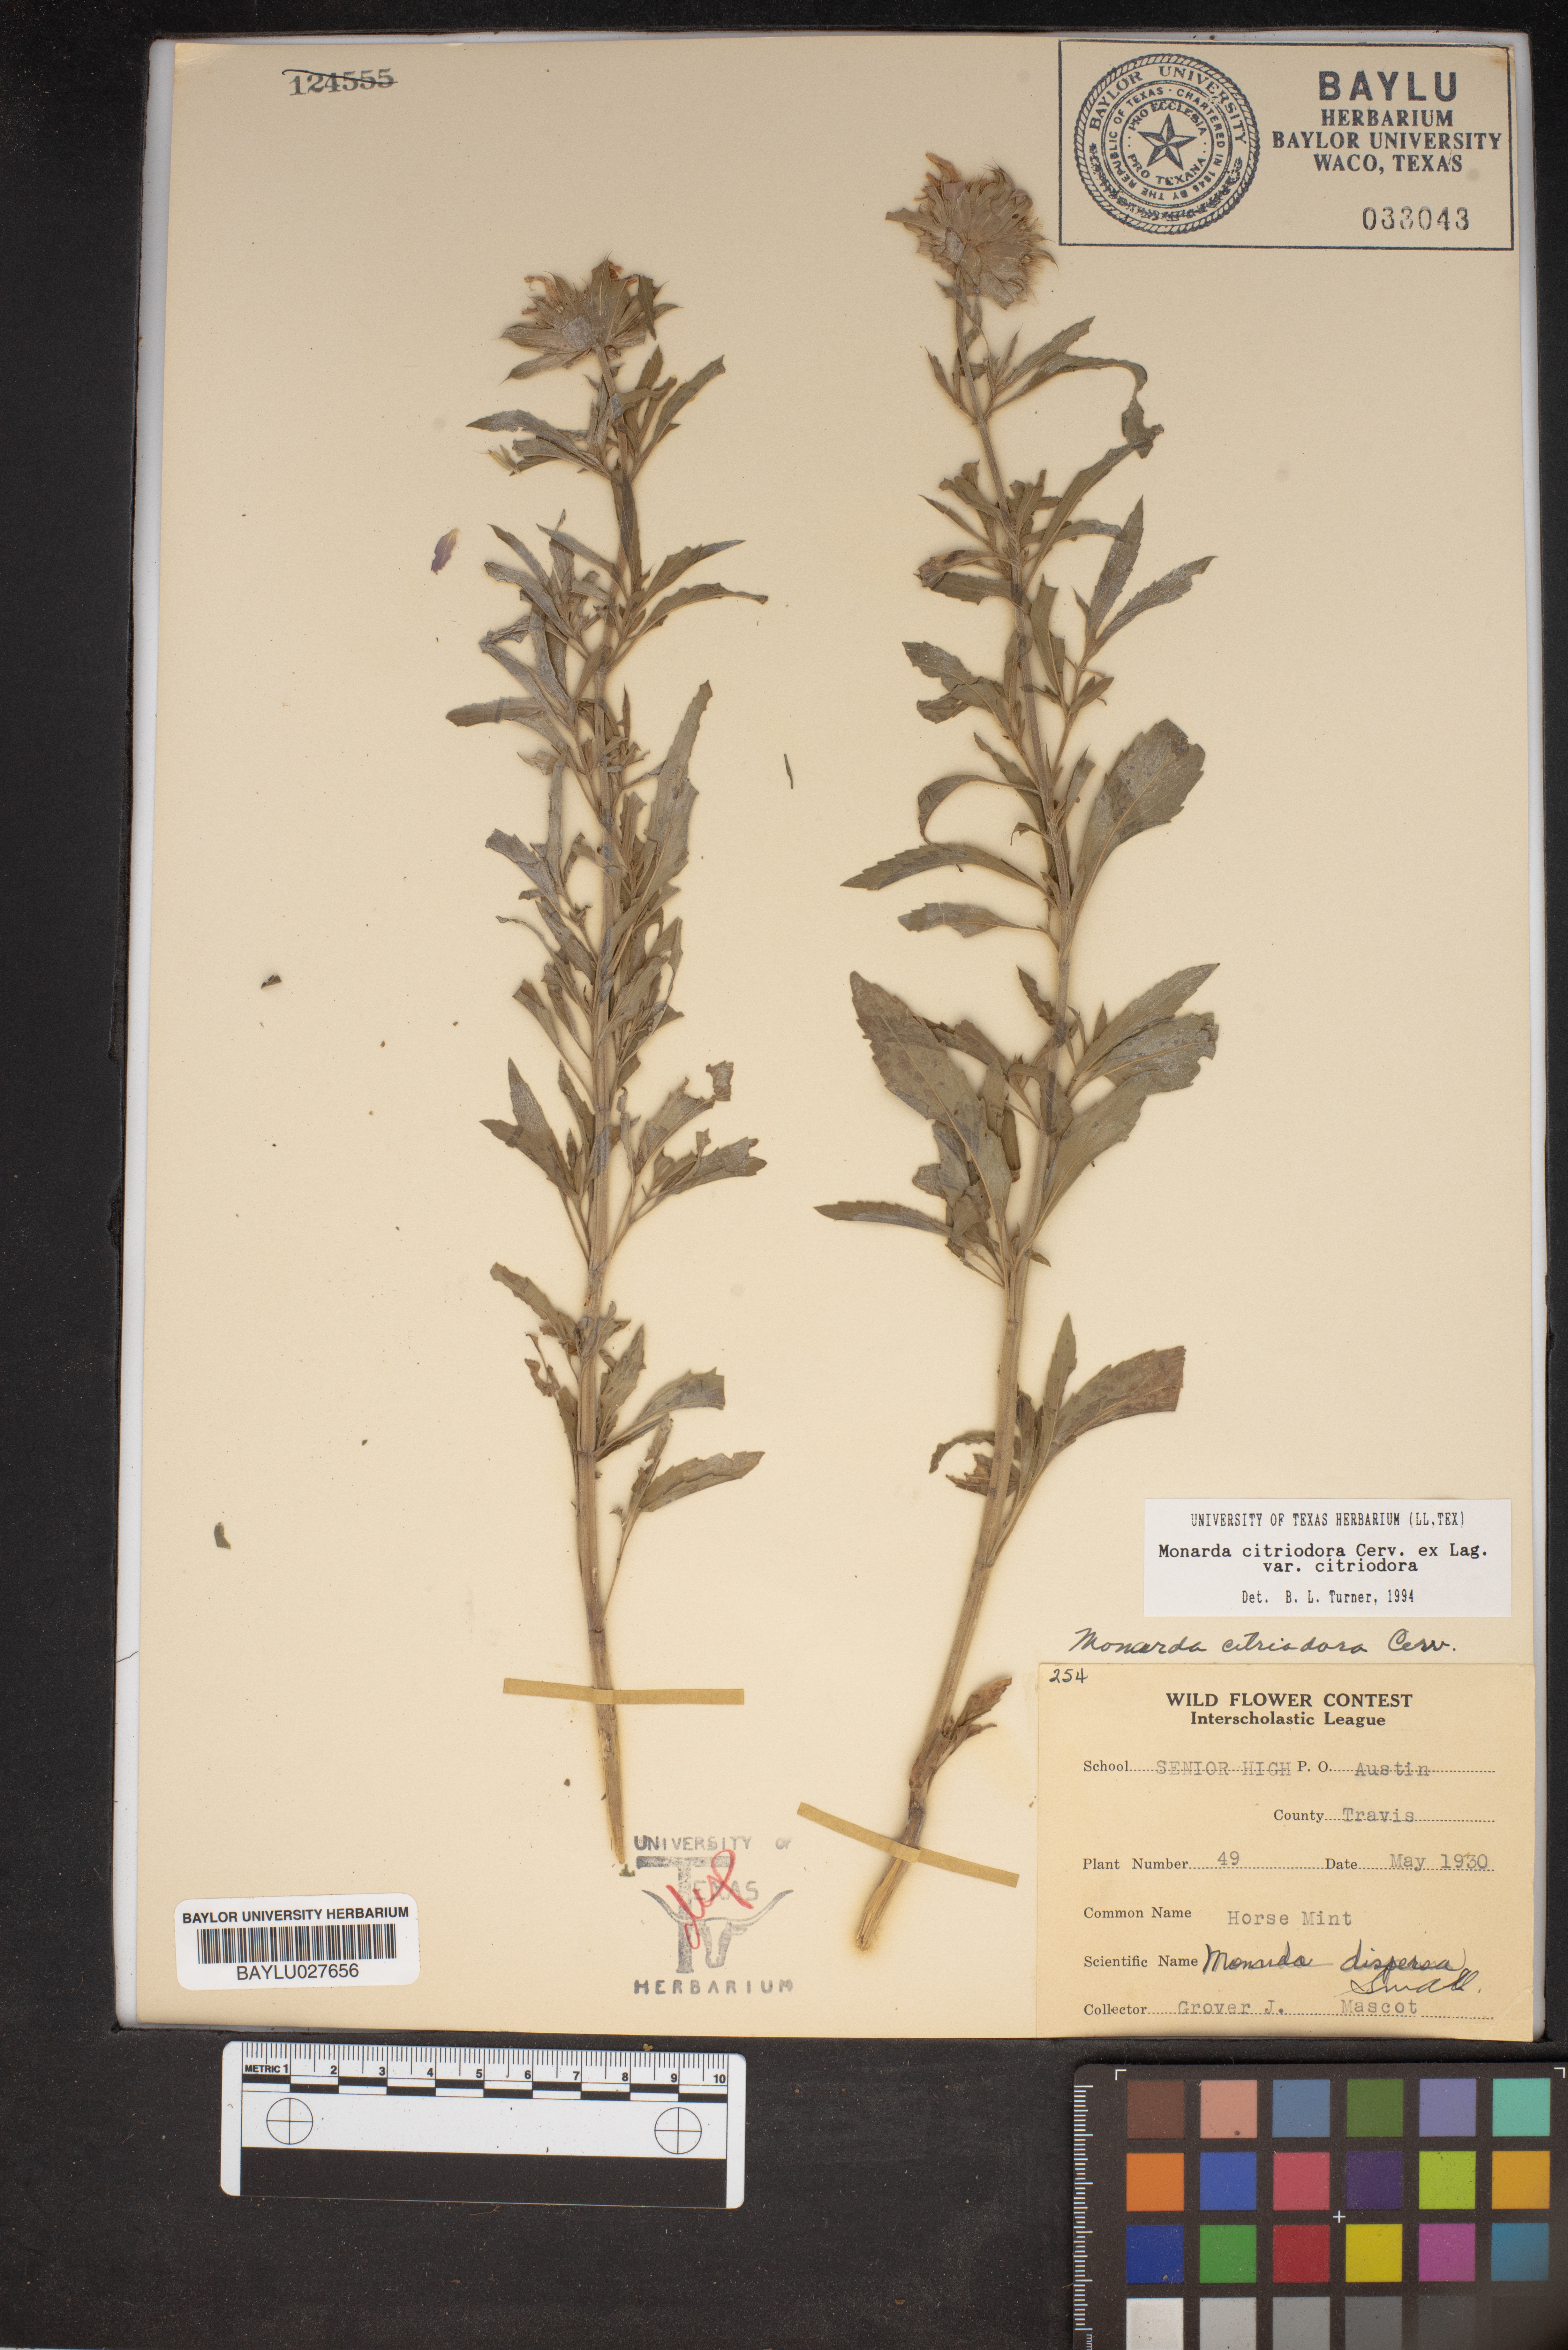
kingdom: Plantae
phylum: Tracheophyta
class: Magnoliopsida
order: Lamiales
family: Lamiaceae
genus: Monarda
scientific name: Monarda citriodora
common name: Lemon beebalm
